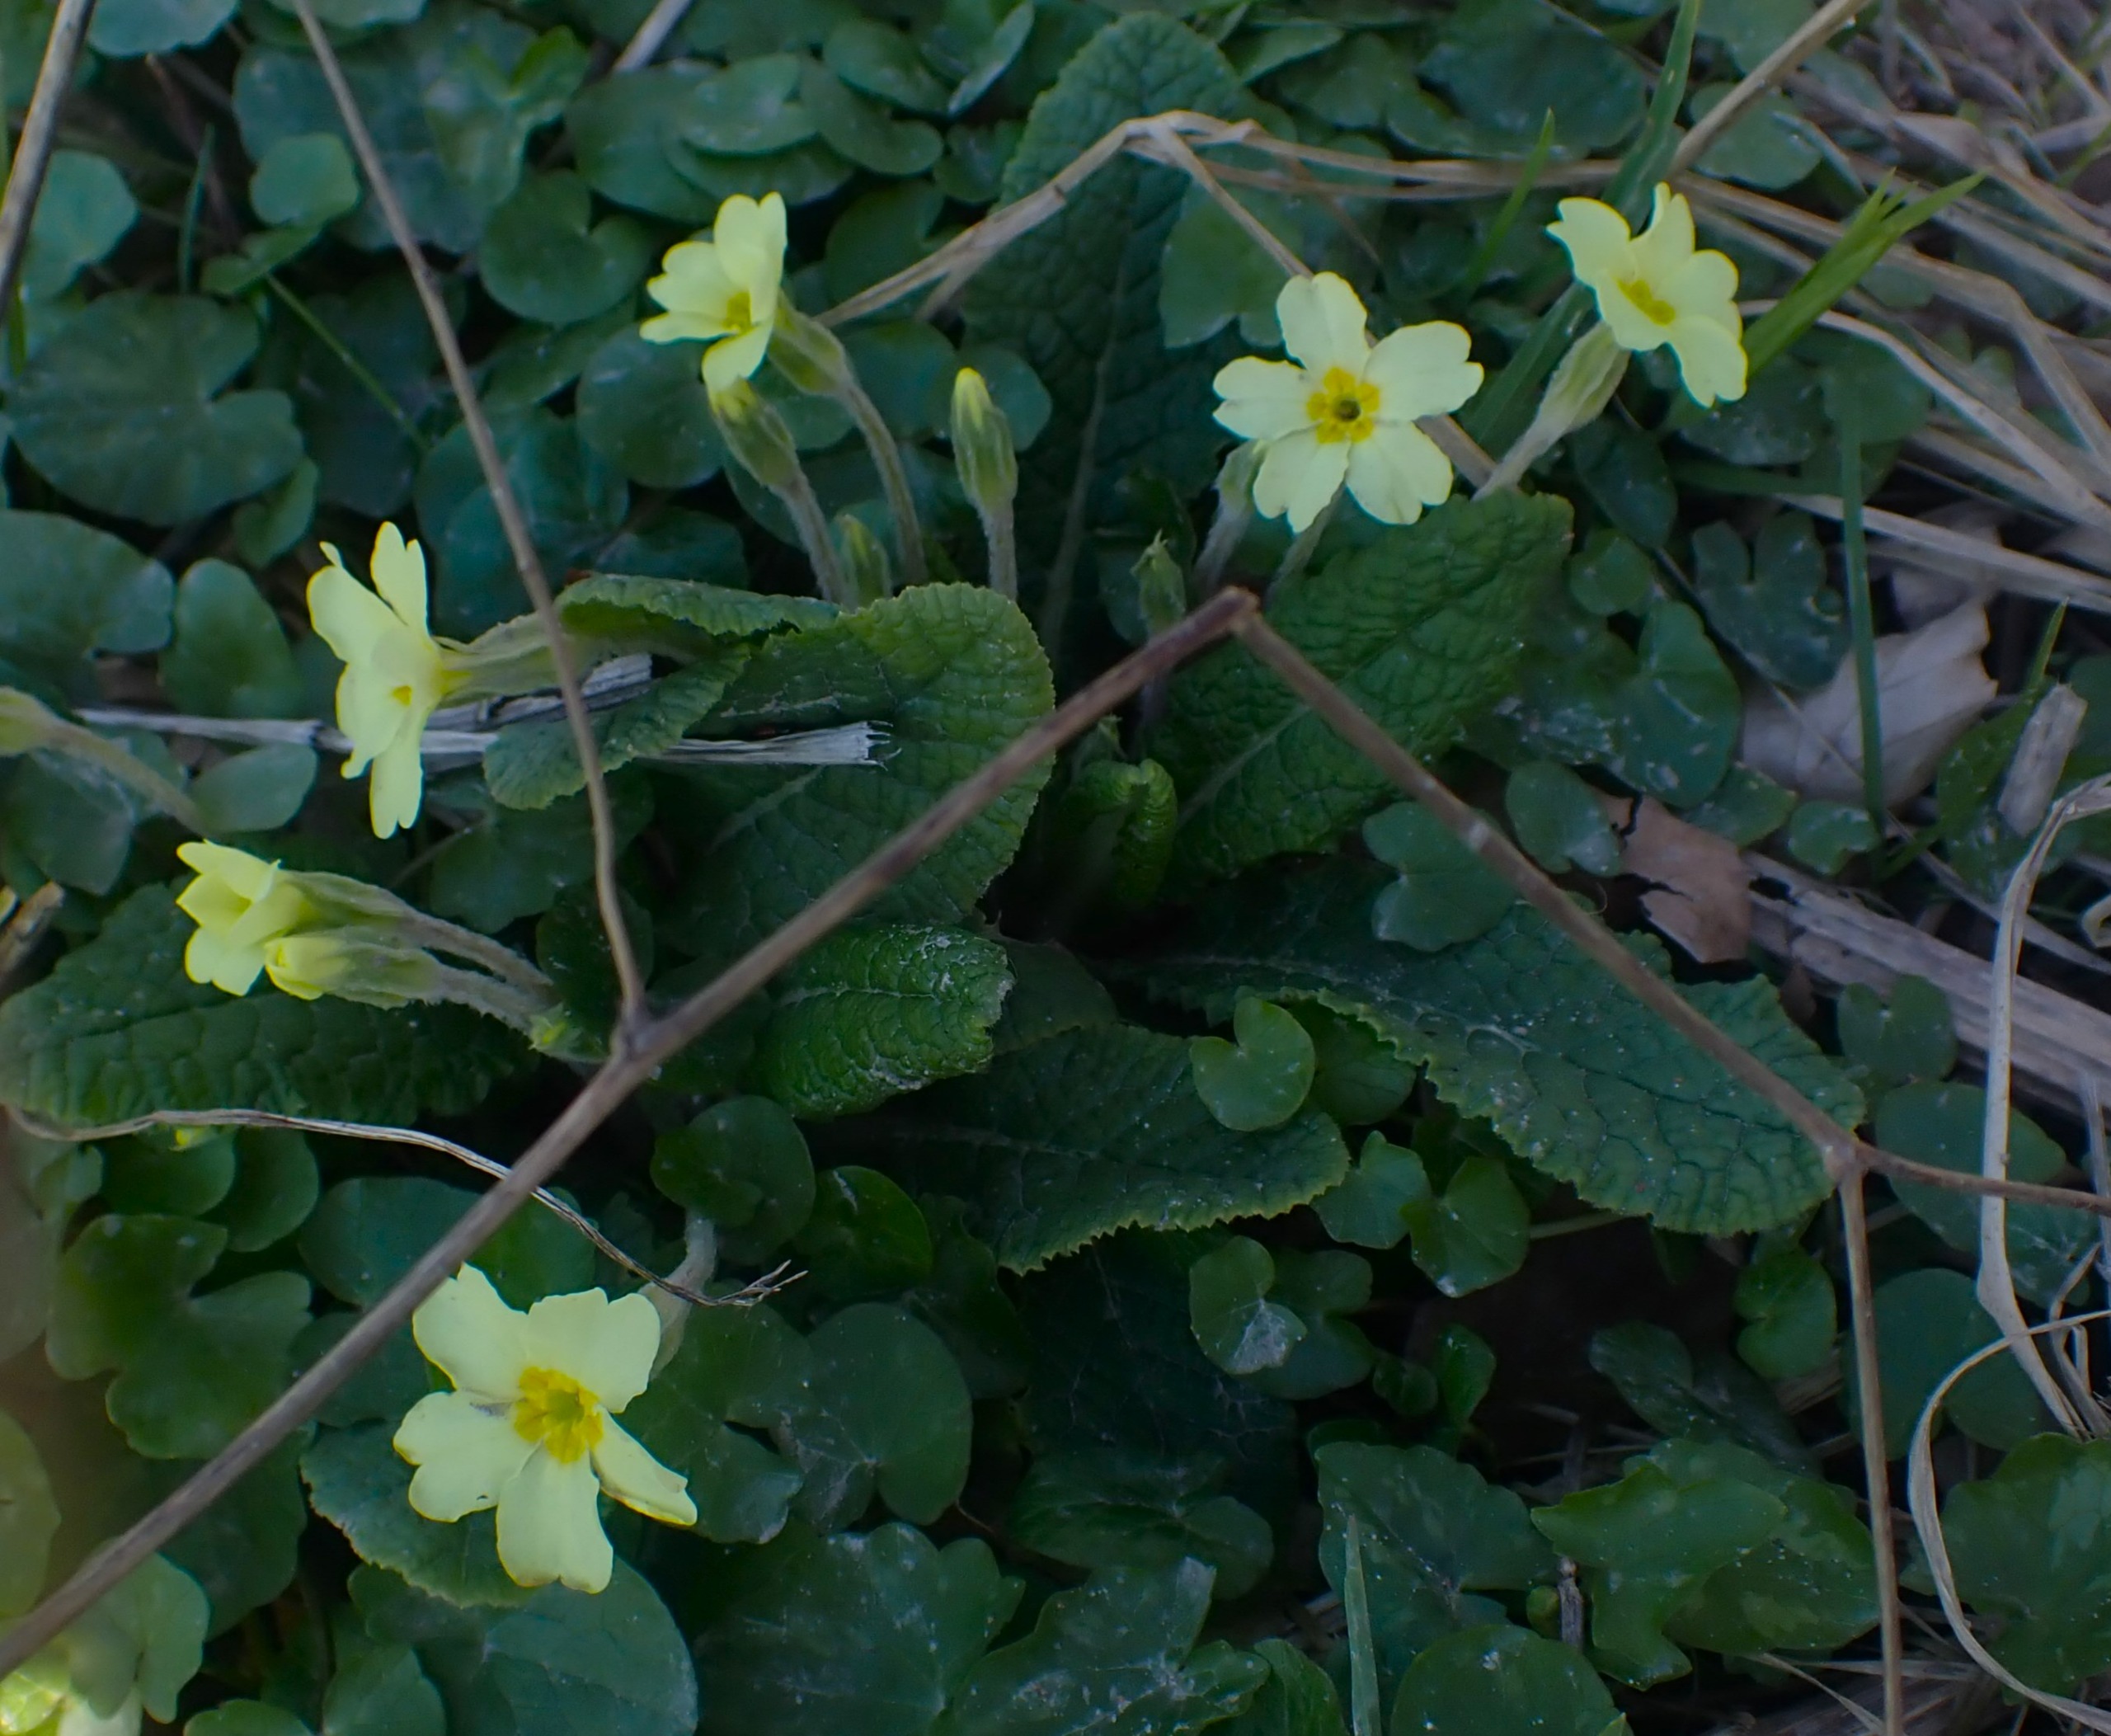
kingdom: Plantae
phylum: Tracheophyta
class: Magnoliopsida
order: Ericales
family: Primulaceae
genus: Primula
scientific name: Primula vulgaris
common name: Storblomstret kodriver
